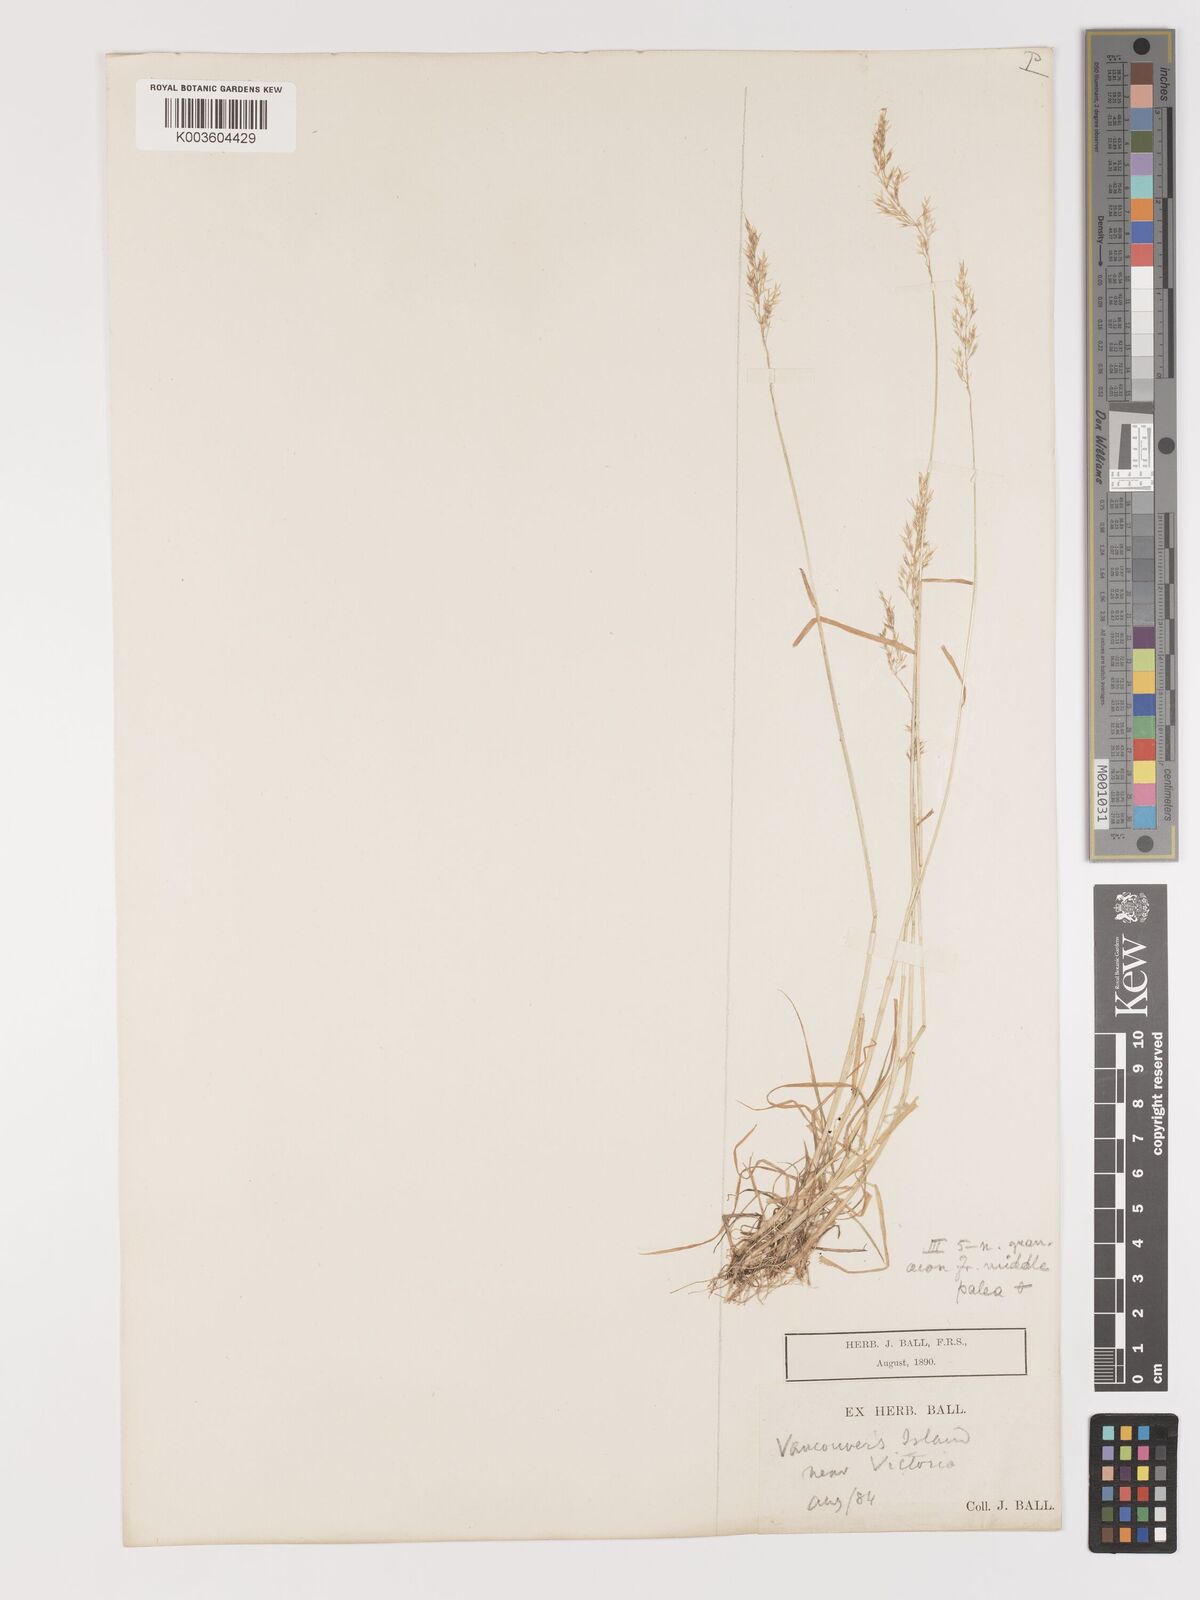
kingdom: Plantae
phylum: Tracheophyta
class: Liliopsida
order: Poales
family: Poaceae
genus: Agrostis
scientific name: Agrostis hyemalis
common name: Small bent
